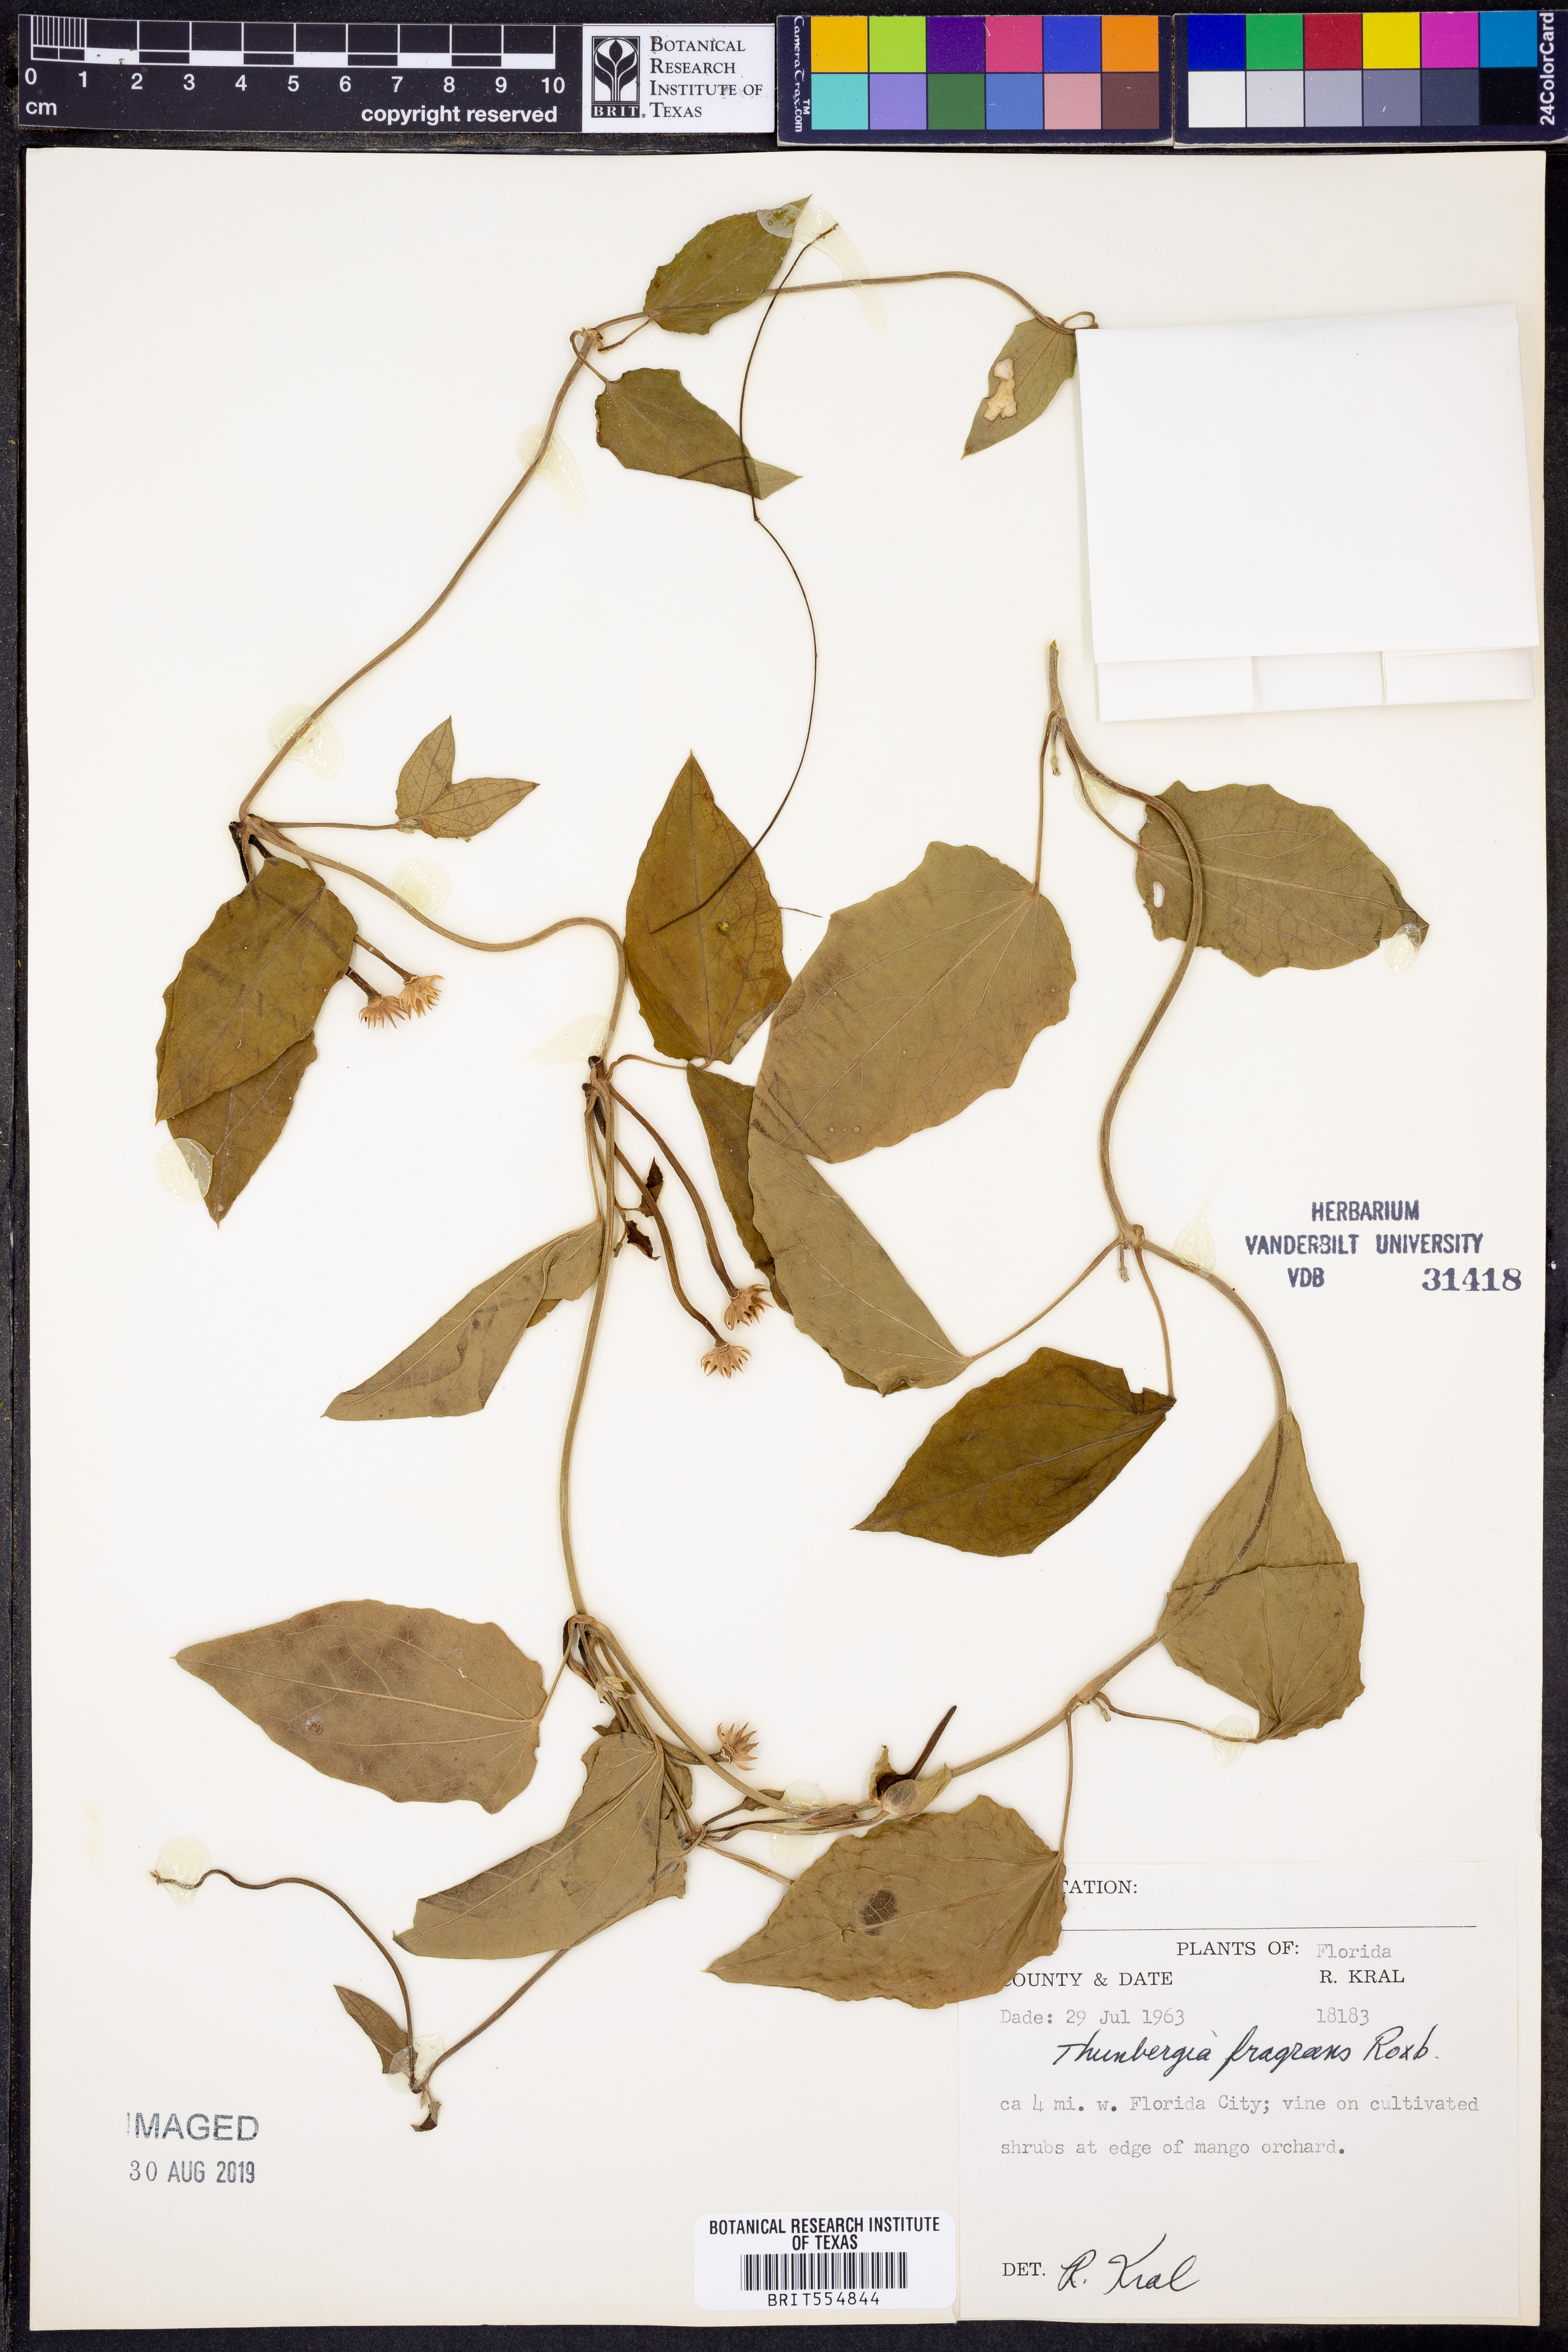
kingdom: Plantae
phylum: Tracheophyta
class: Magnoliopsida
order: Lamiales
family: Acanthaceae
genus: Thunbergia
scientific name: Thunbergia fragrans
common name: Whitelady
